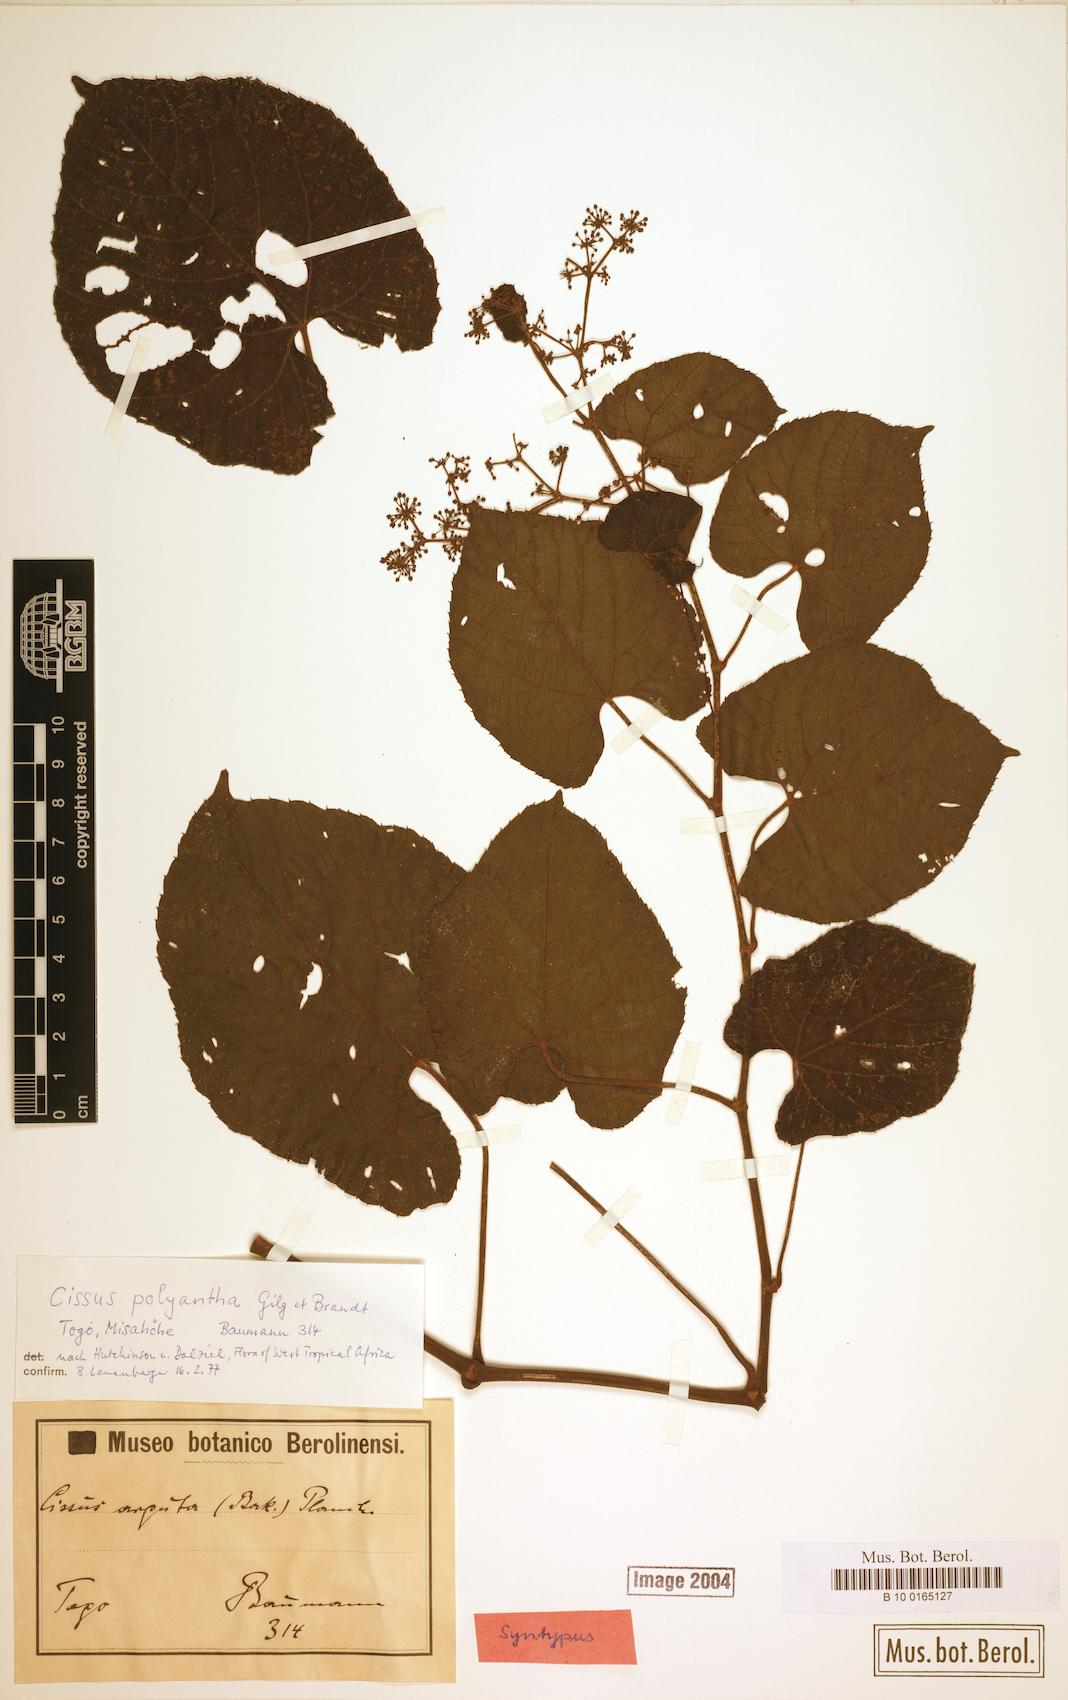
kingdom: Plantae
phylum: Tracheophyta
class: Magnoliopsida
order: Vitales
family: Vitaceae
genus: Cissus
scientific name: Cissus polyantha
